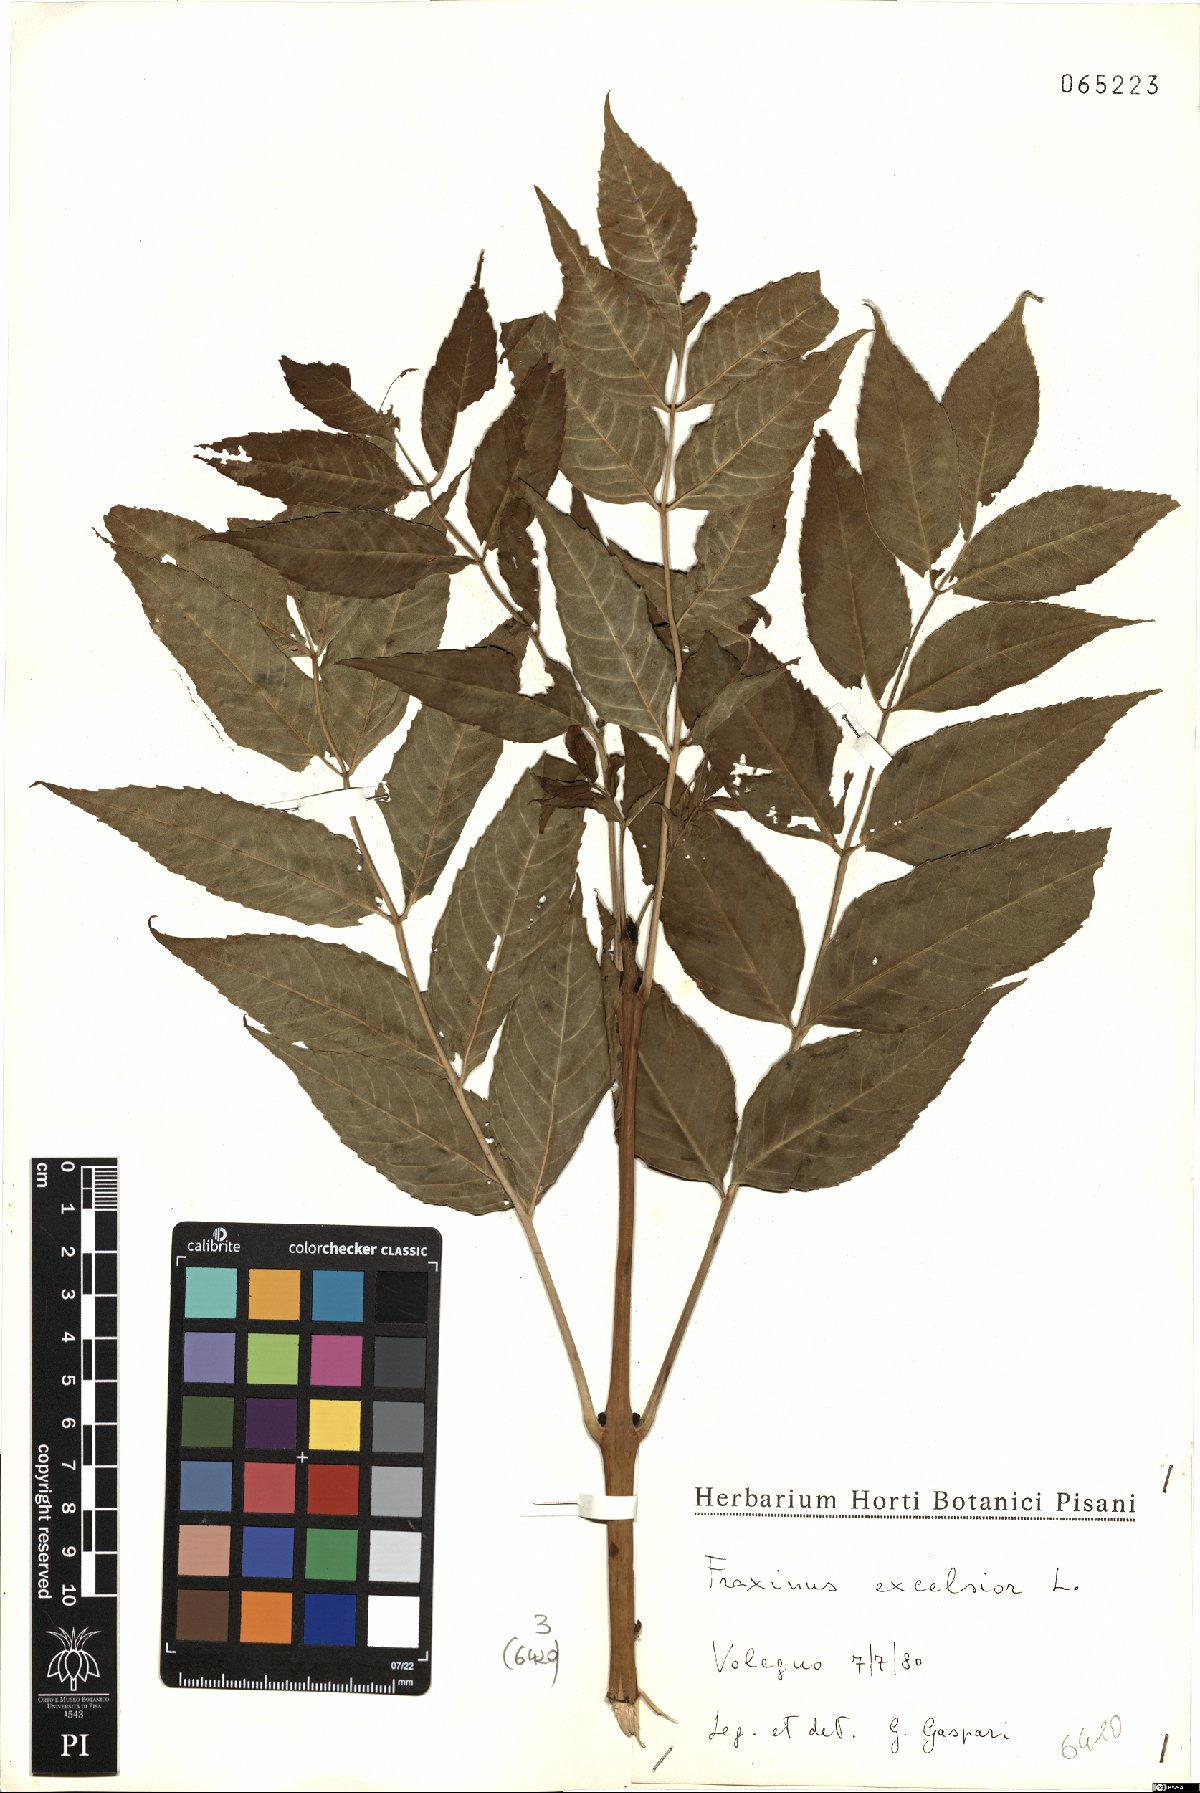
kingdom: Plantae
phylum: Tracheophyta
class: Magnoliopsida
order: Lamiales
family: Oleaceae
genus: Fraxinus
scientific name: Fraxinus excelsior
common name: European ash
